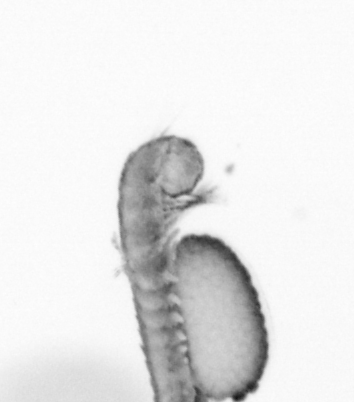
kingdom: Animalia
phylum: Annelida
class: Polychaeta
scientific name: Polychaeta
